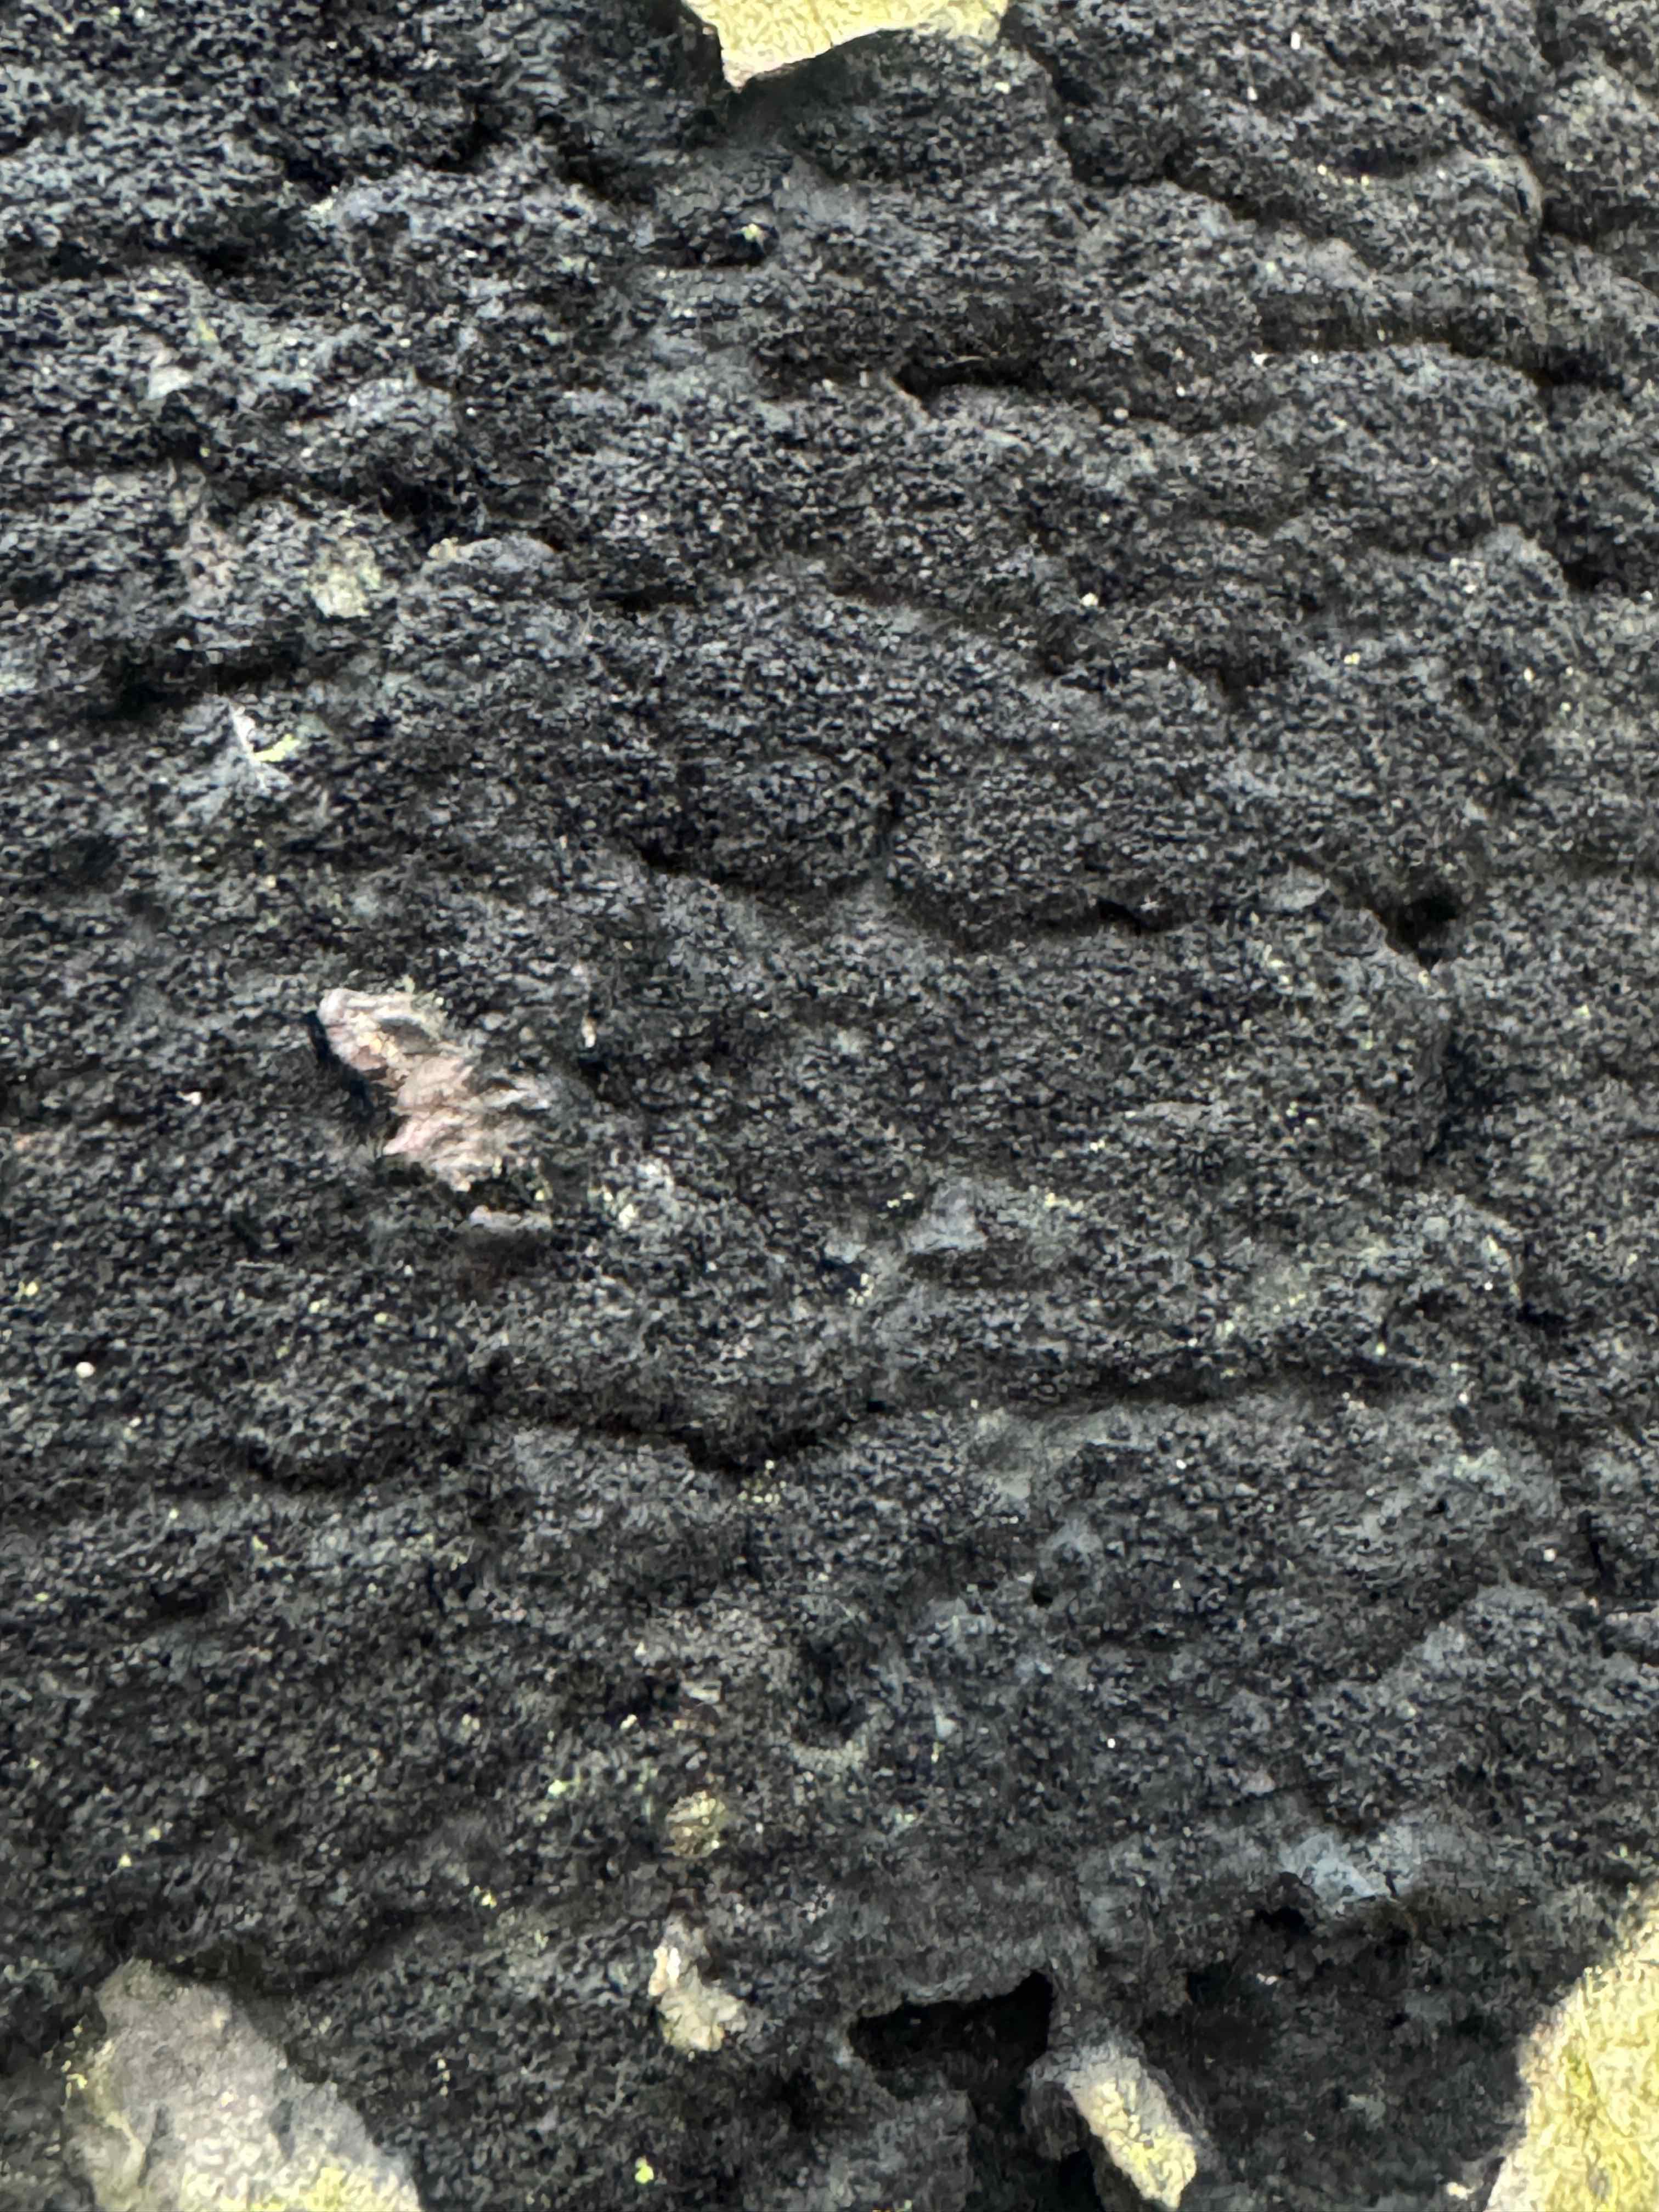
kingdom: Fungi
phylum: Ascomycota
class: Sordariomycetes
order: Xylariales
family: Diatrypaceae
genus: Eutypa
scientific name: Eutypa spinosa
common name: grov kulskorpe
